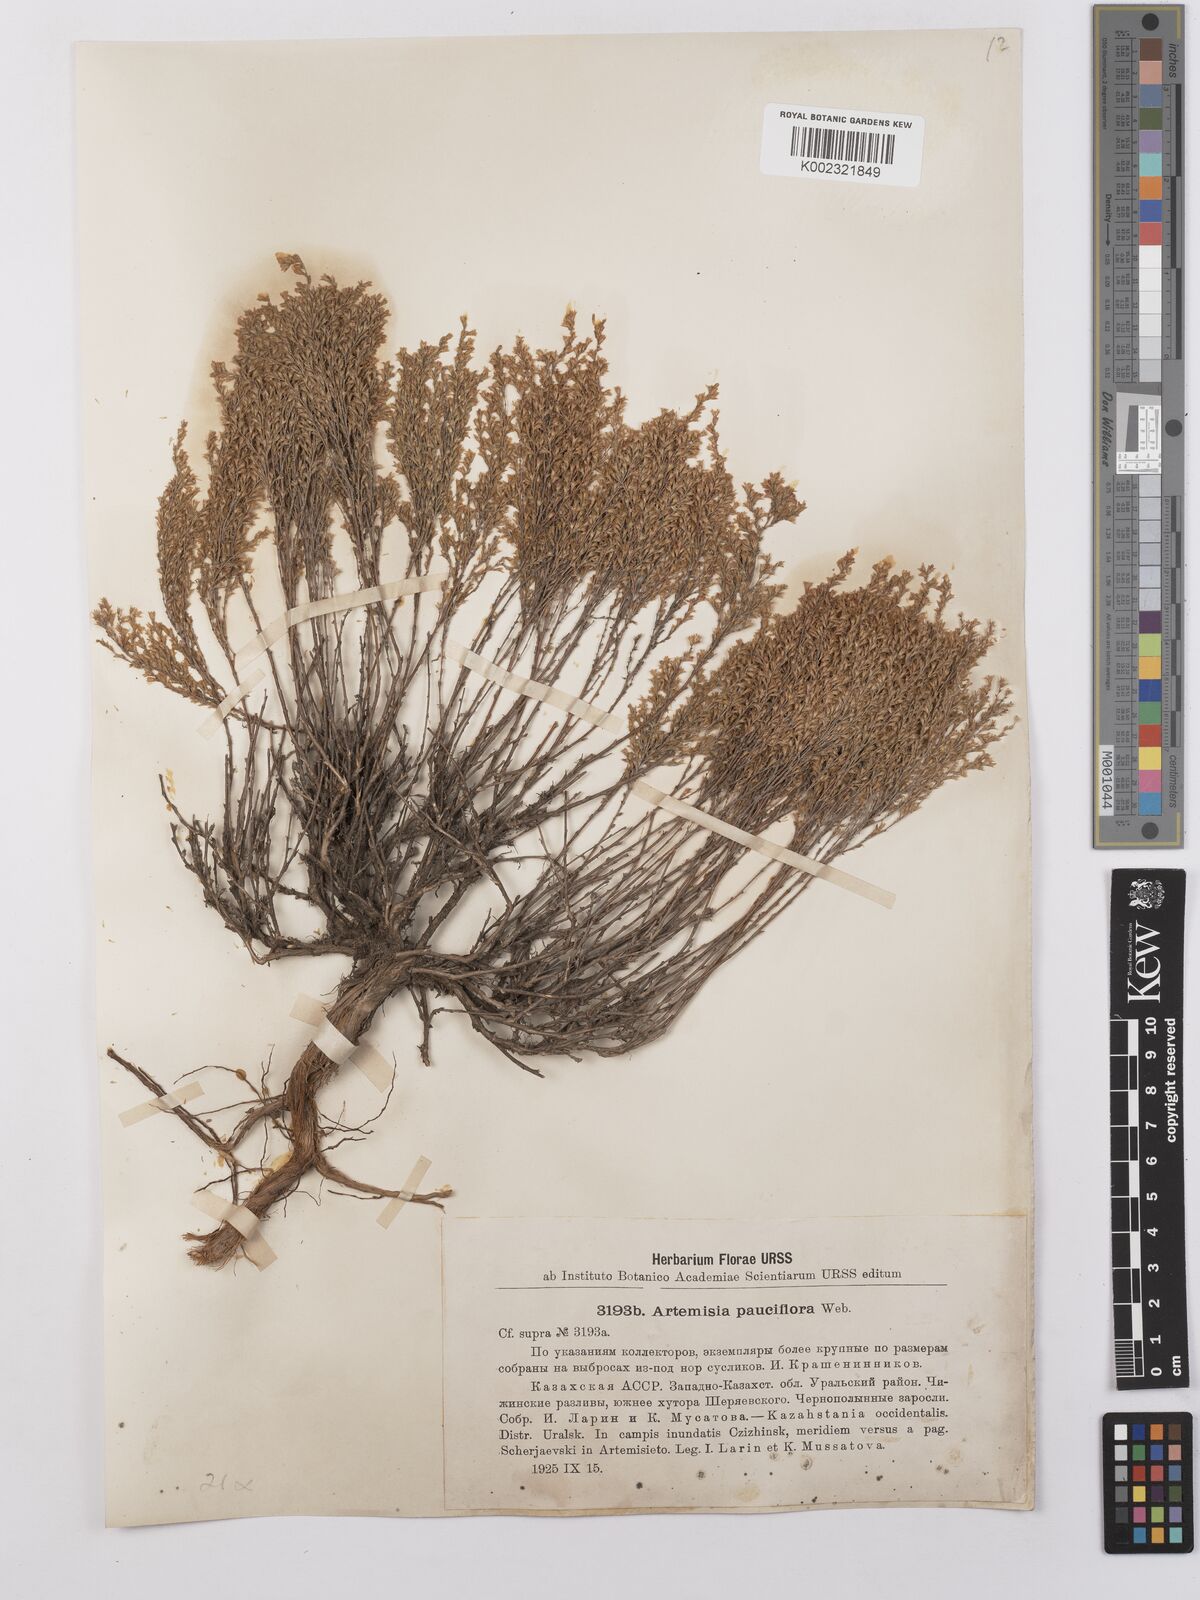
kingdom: Plantae
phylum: Tracheophyta
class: Magnoliopsida
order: Asterales
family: Asteraceae
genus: Artemisia
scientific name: Artemisia pauciflora
